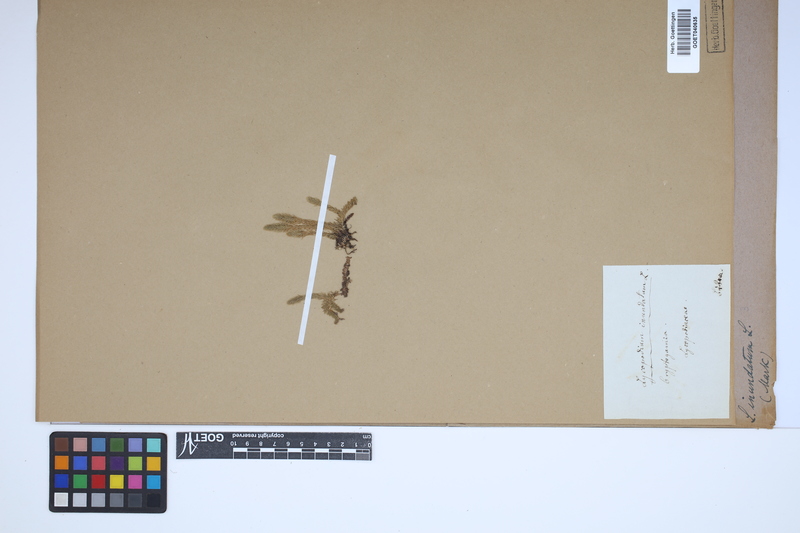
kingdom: Plantae
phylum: Tracheophyta
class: Lycopodiopsida
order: Lycopodiales
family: Lycopodiaceae
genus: Lycopodiella
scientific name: Lycopodiella inundata
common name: Marsh clubmoss
